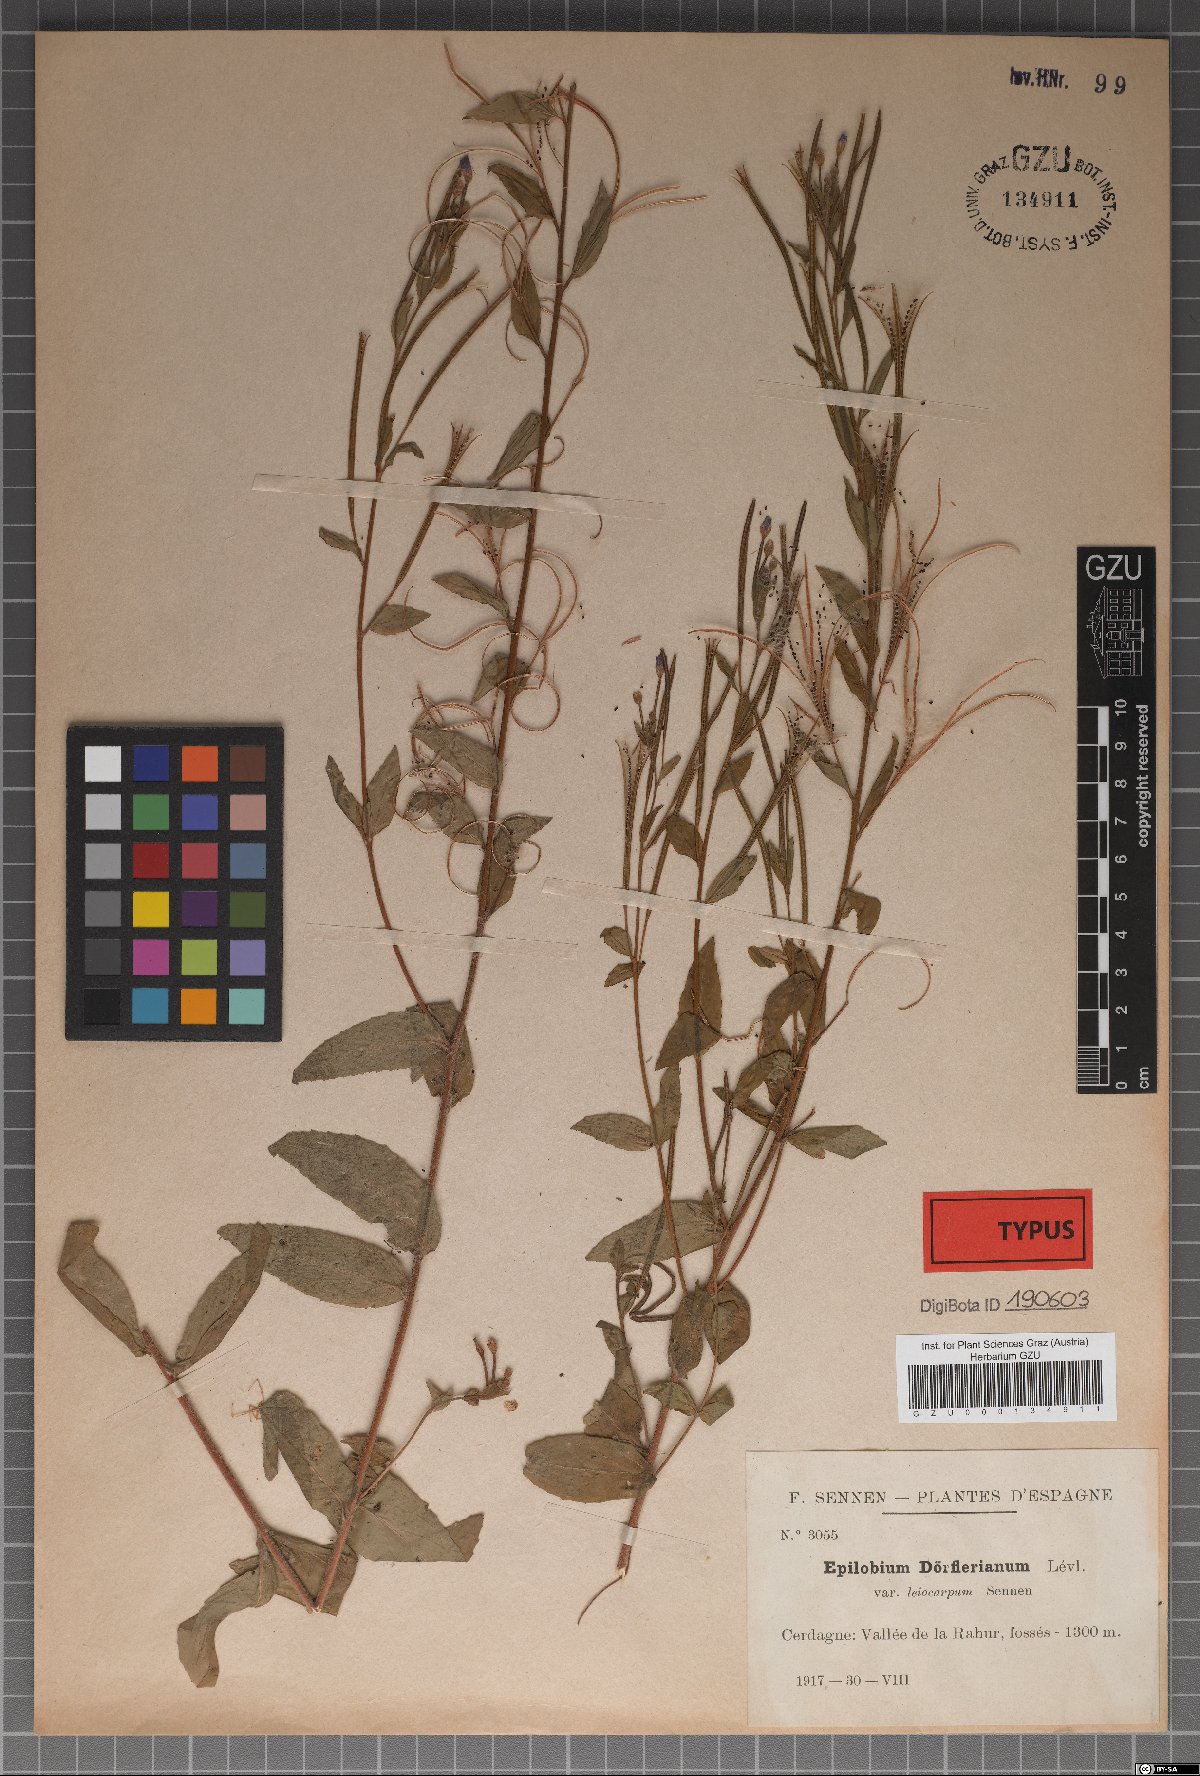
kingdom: Plantae
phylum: Tracheophyta
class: Magnoliopsida
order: Myrtales
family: Onagraceae
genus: Epilobium
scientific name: Epilobium dacicum
